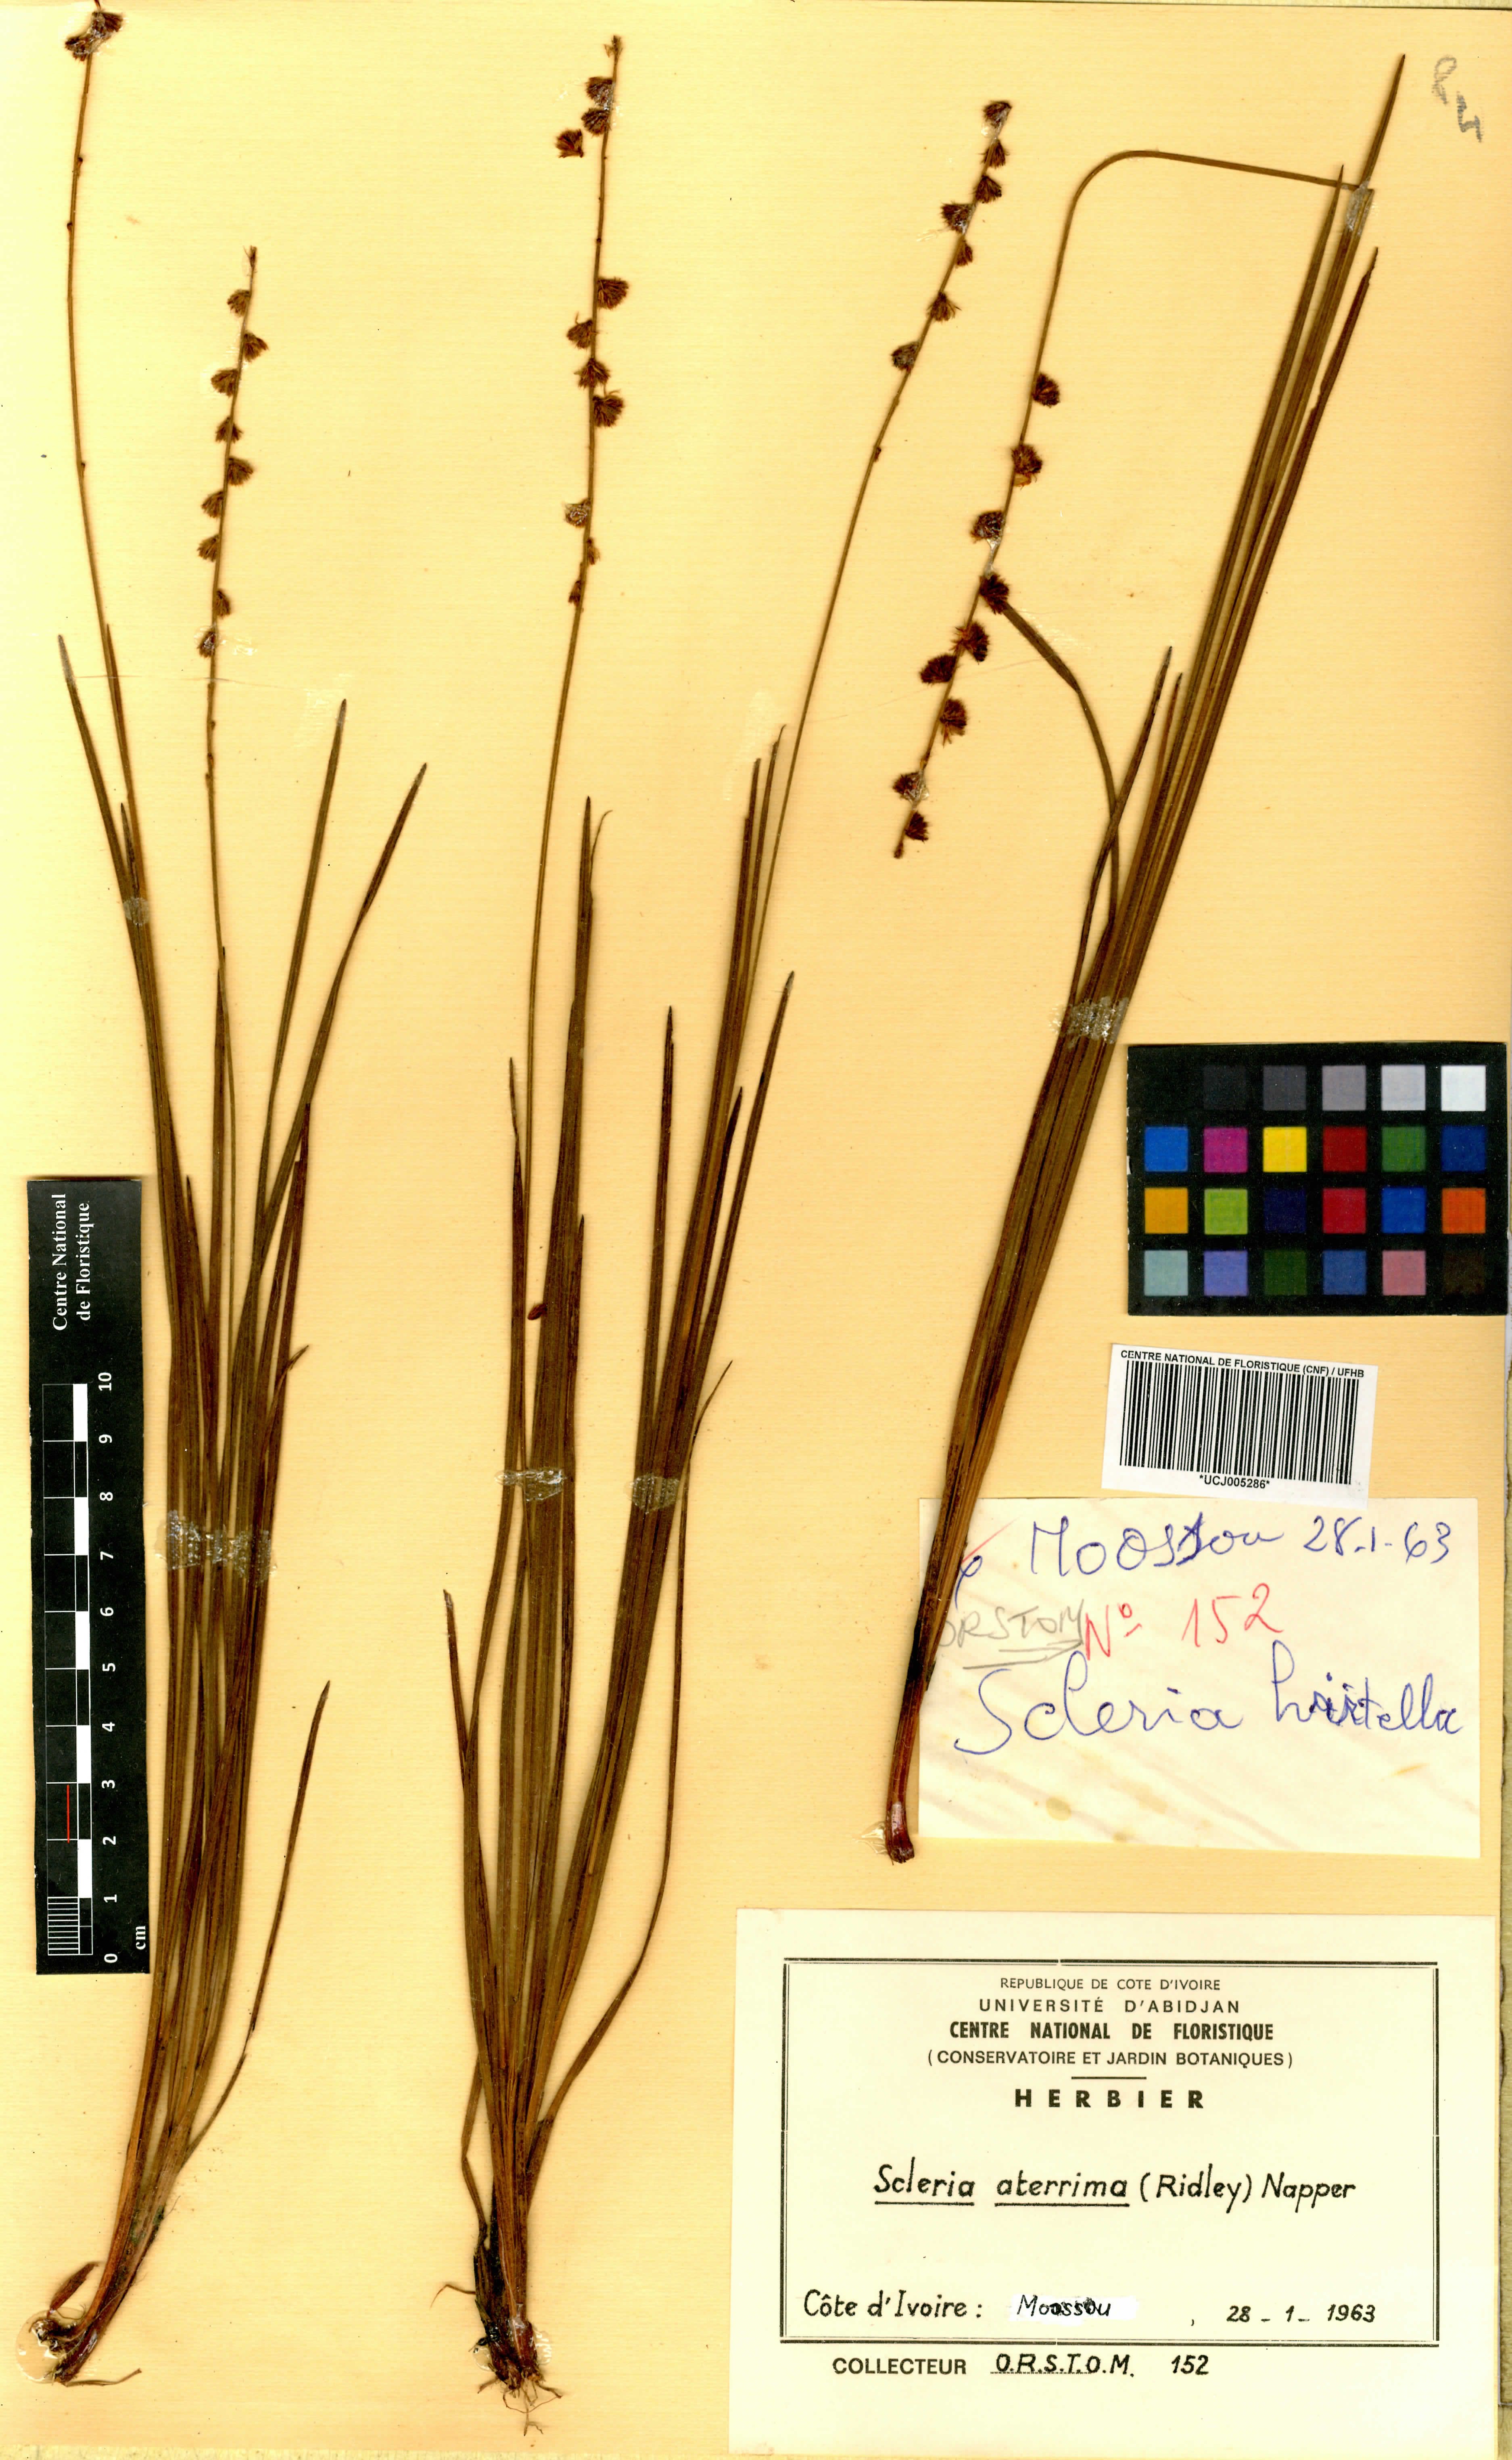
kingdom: Plantae
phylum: Tracheophyta
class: Liliopsida
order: Poales
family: Cyperaceae
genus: Scleria
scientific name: Scleria catophylla
